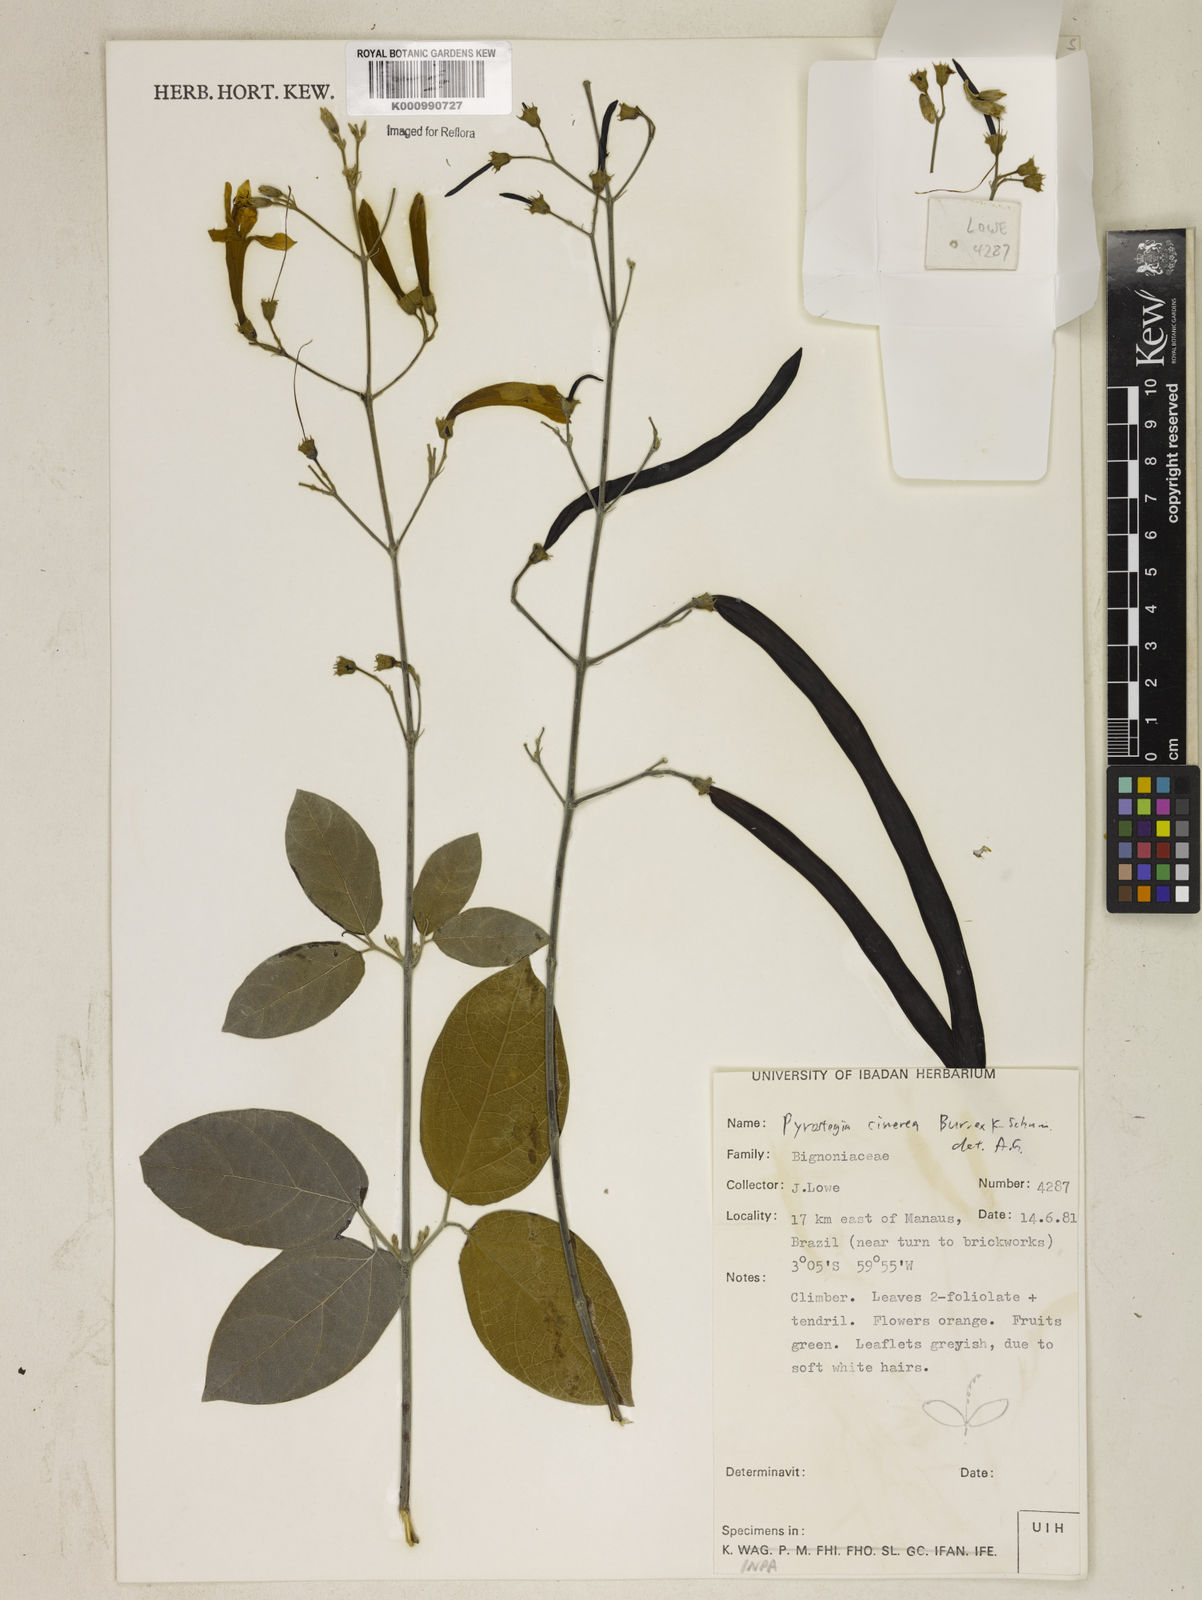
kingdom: Plantae
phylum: Tracheophyta
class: Magnoliopsida
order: Lamiales
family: Bignoniaceae
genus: Pyrostegia
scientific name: Pyrostegia
